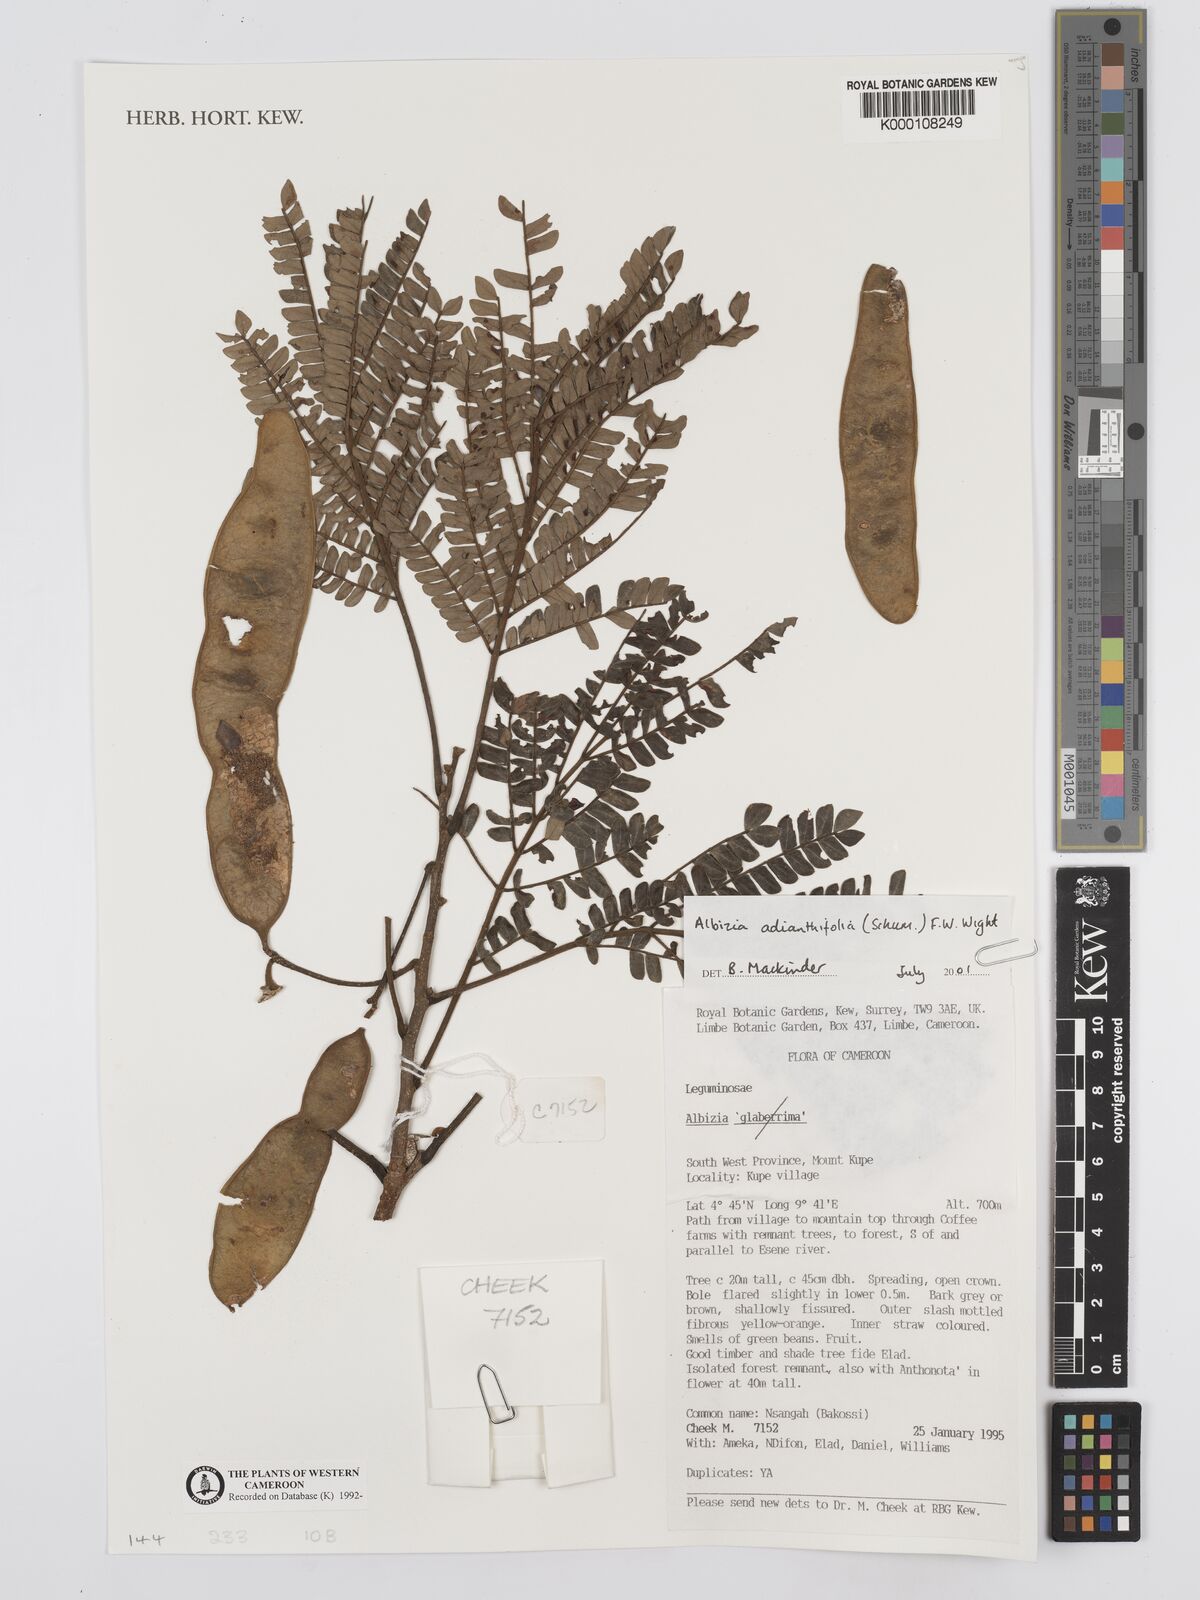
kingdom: Plantae
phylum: Tracheophyta
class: Magnoliopsida
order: Fabales
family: Fabaceae
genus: Albizia
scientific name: Albizia adianthifolia
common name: West african albizia
